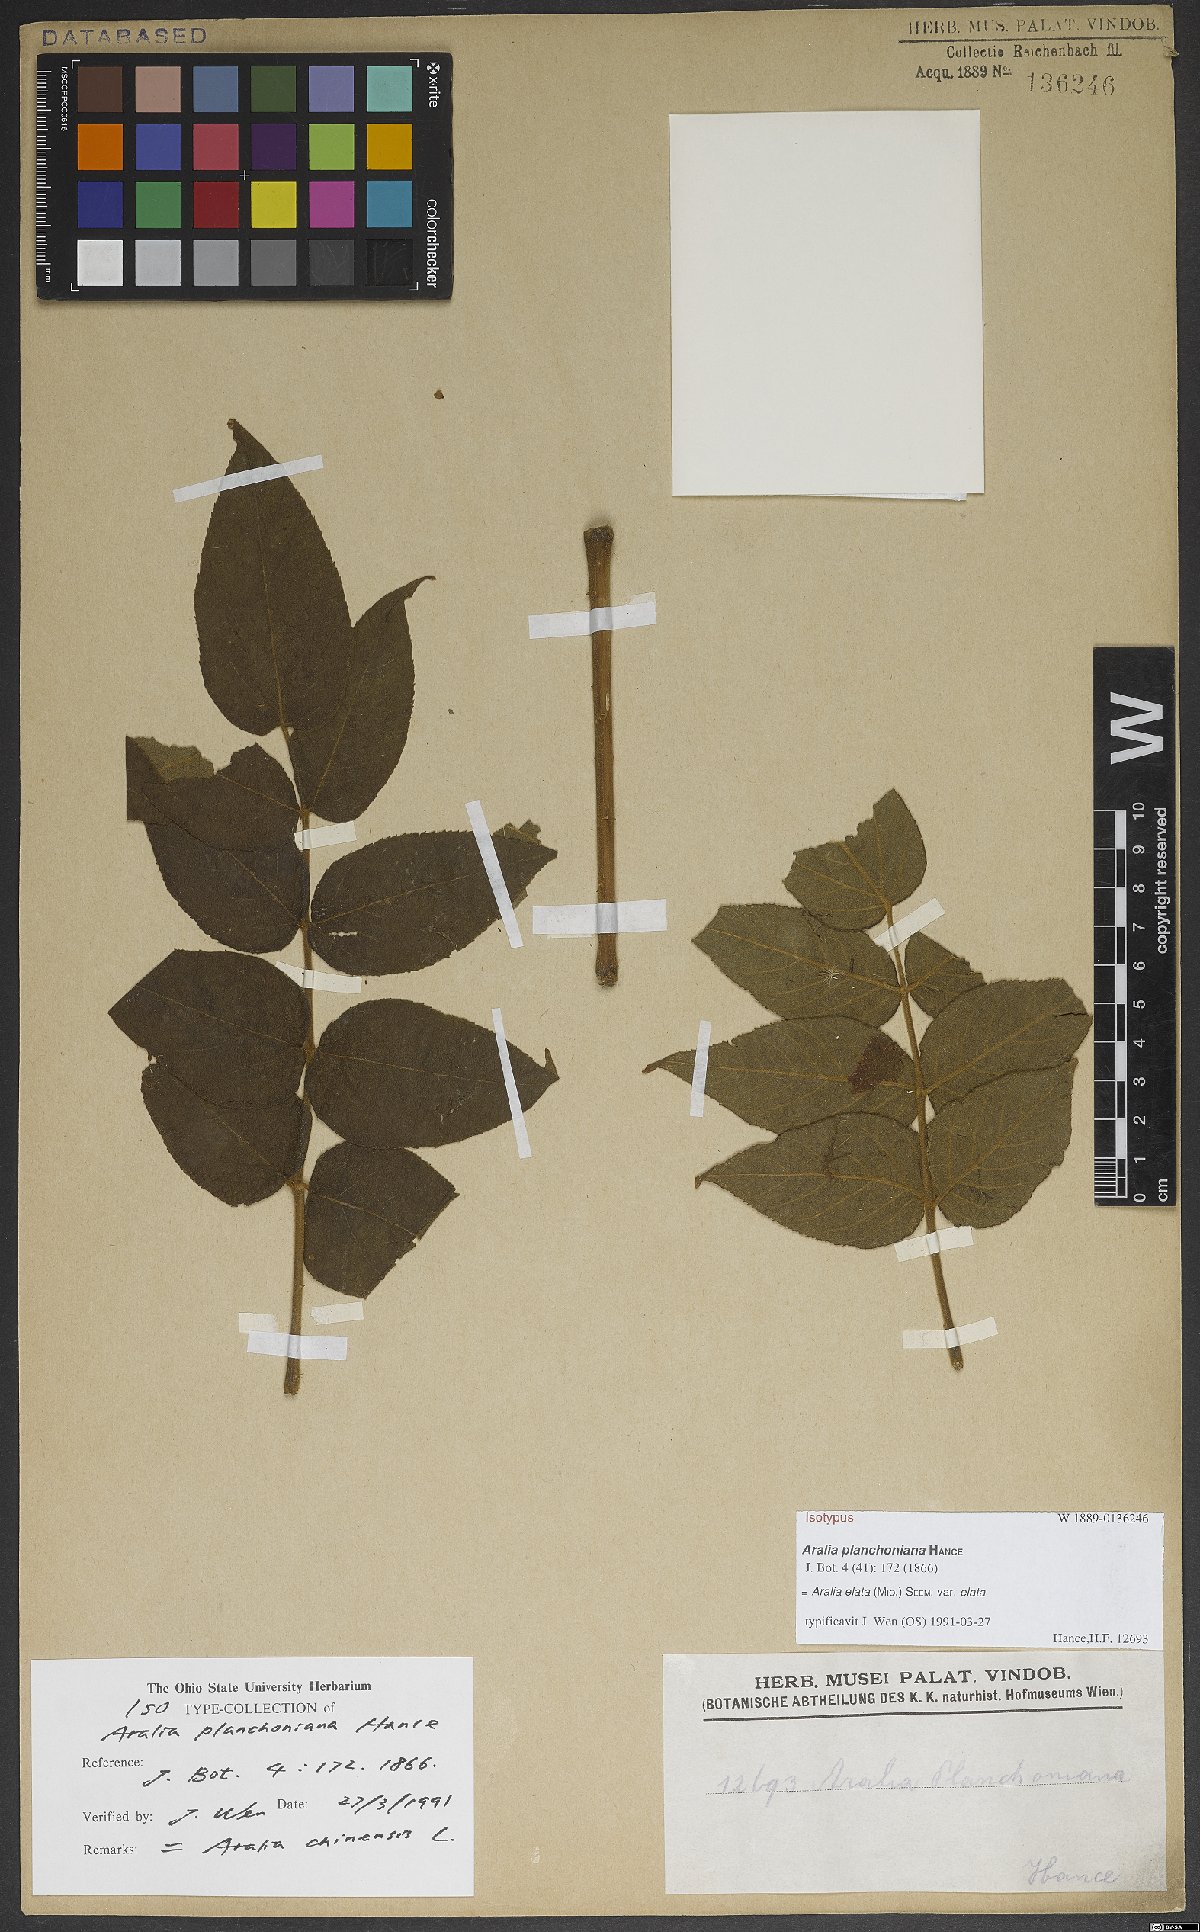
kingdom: Plantae
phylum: Tracheophyta
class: Magnoliopsida
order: Apiales
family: Araliaceae
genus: Aralia
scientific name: Aralia elata
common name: Japanese angelica-tree
